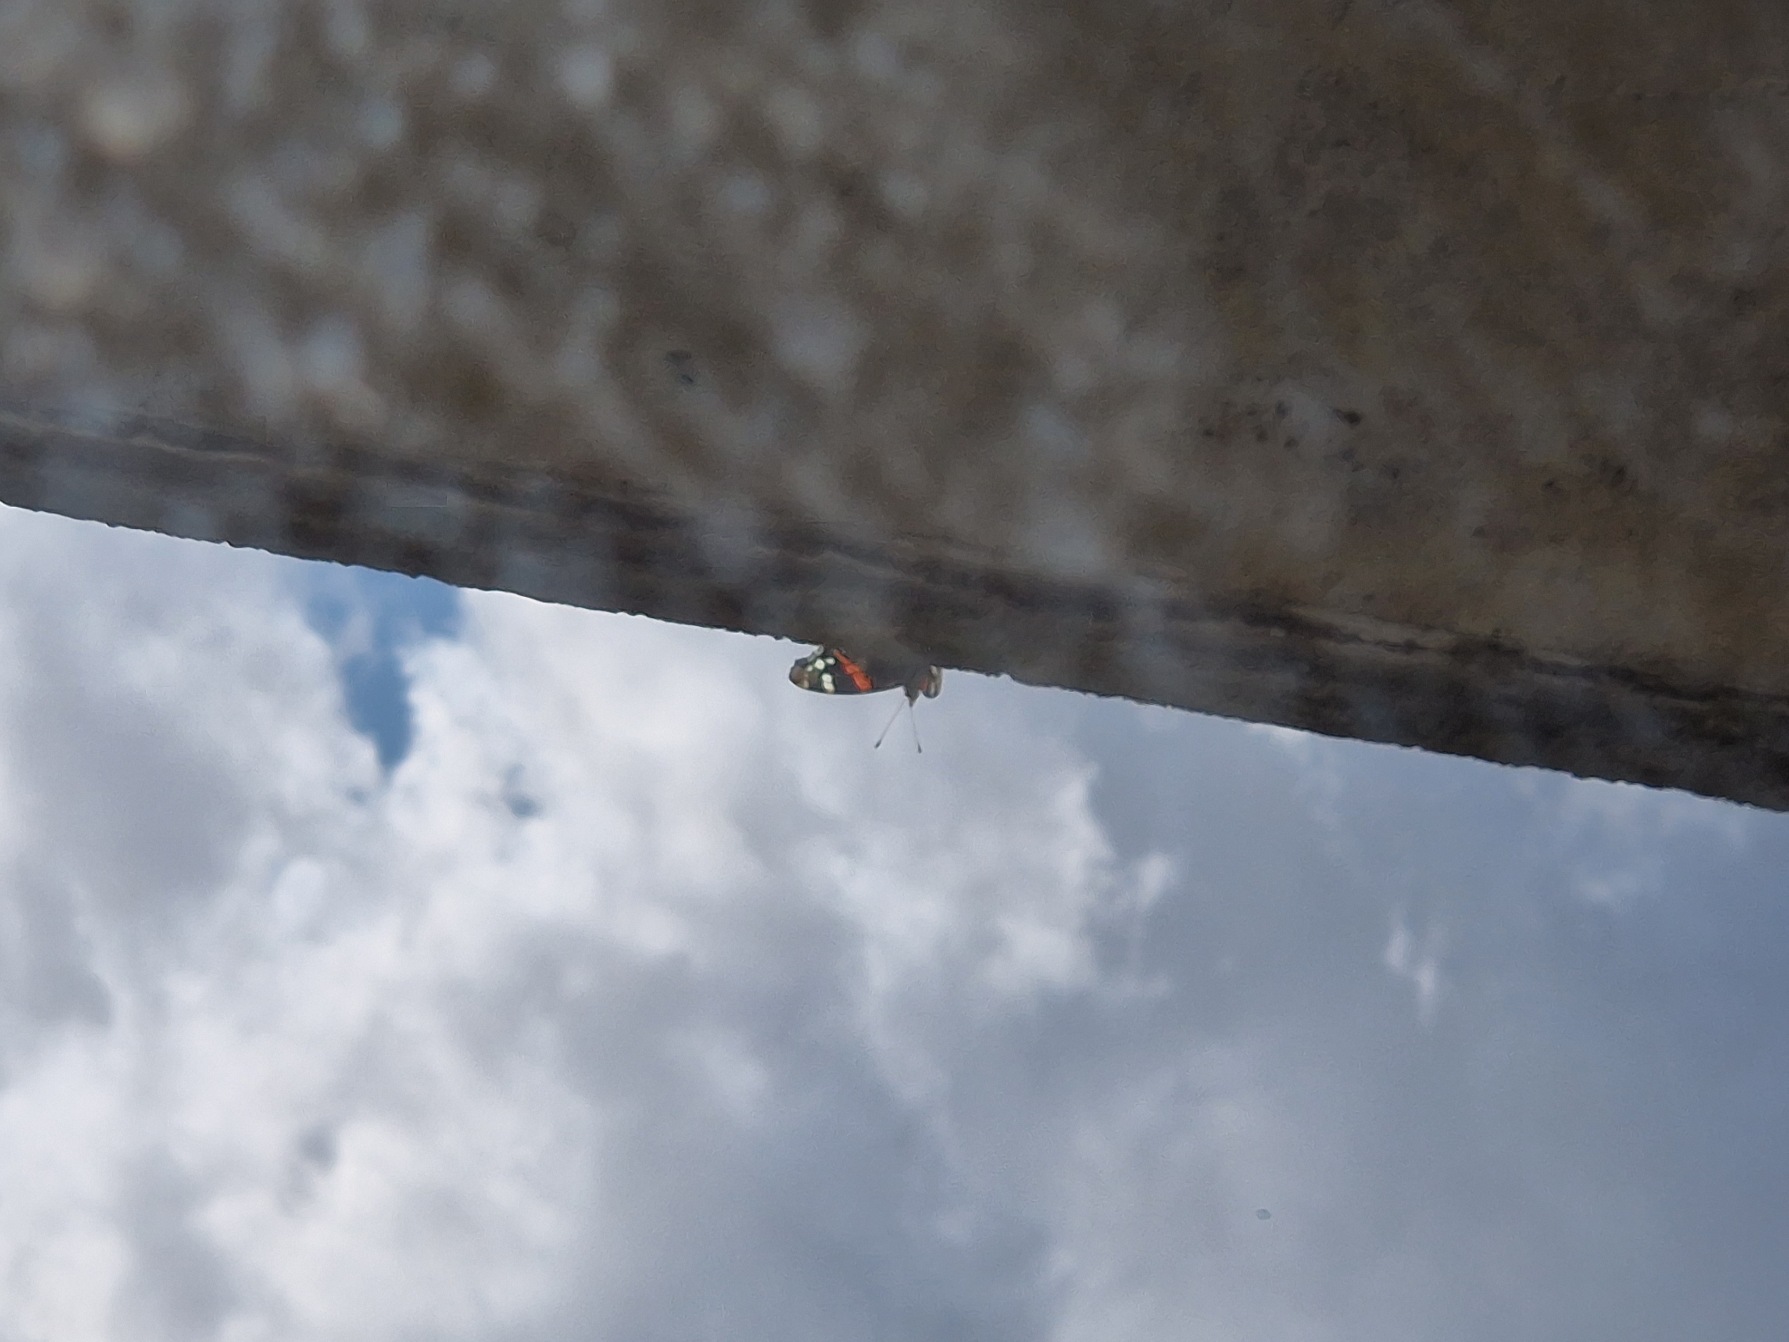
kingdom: Animalia
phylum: Arthropoda
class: Insecta
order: Lepidoptera
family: Nymphalidae
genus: Vanessa
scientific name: Vanessa atalanta
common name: Admiral
